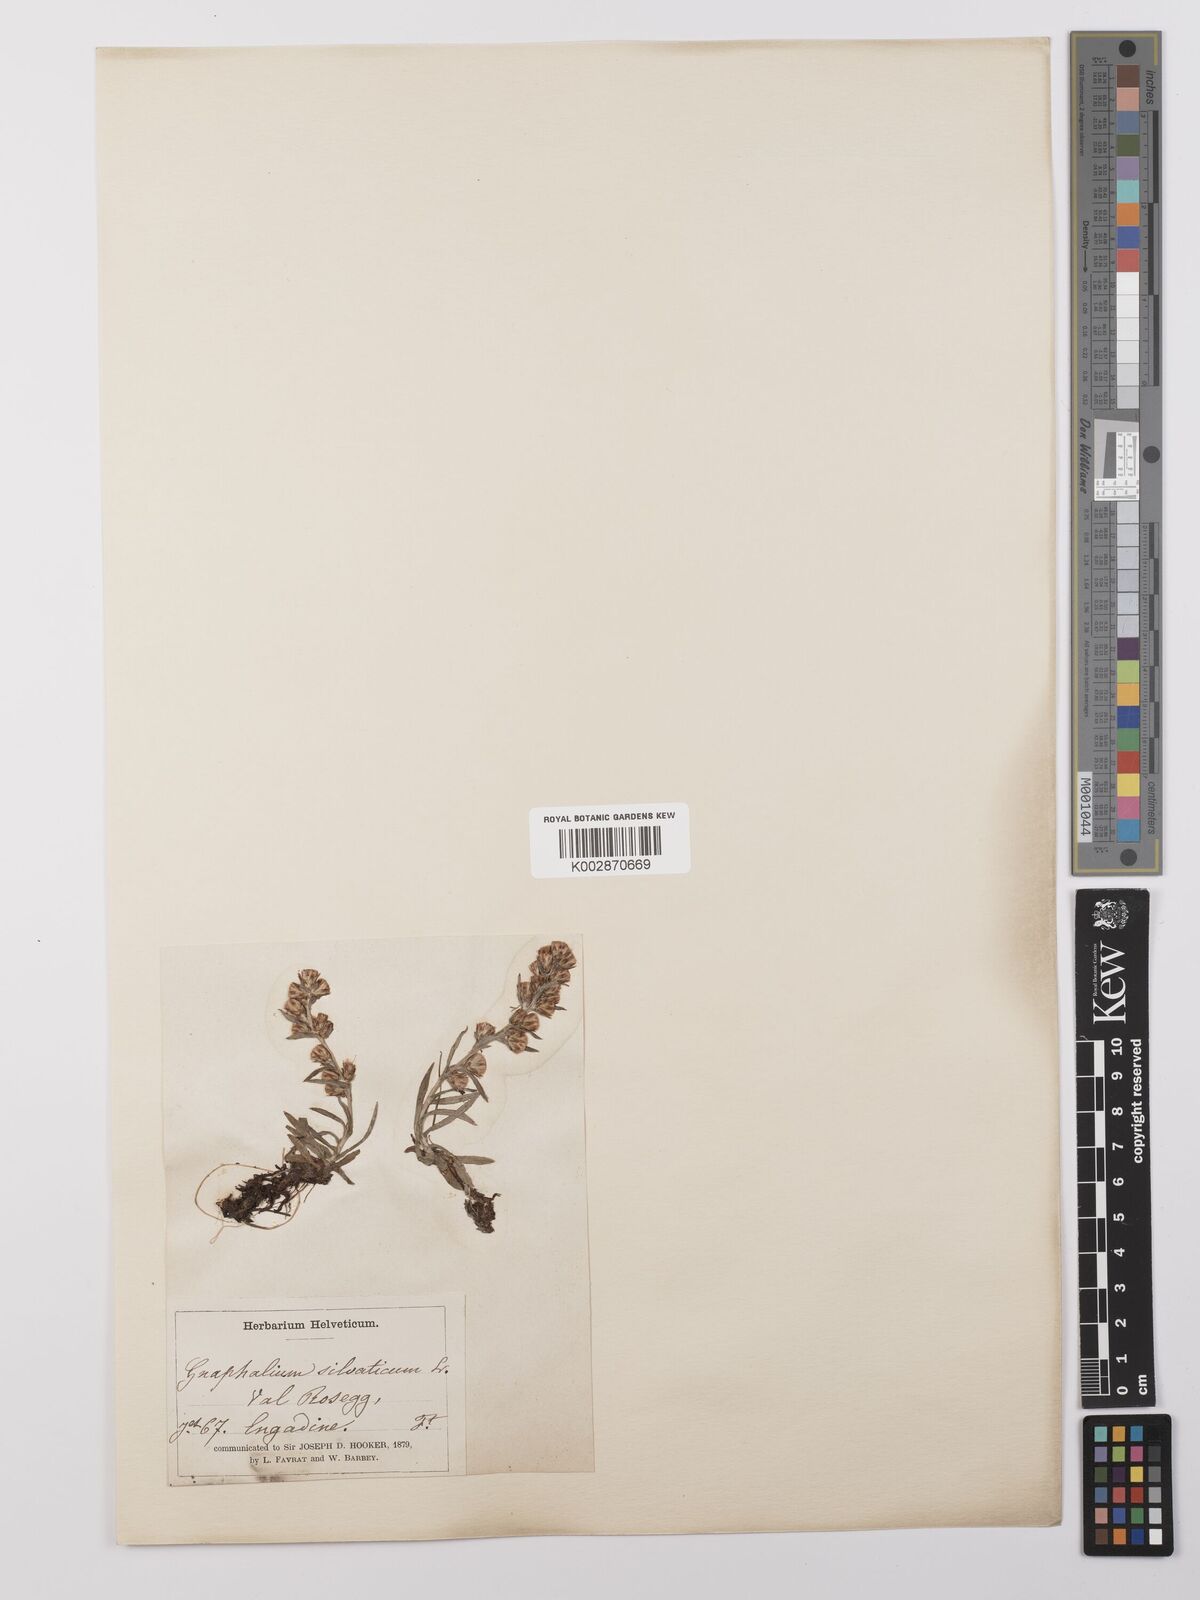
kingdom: Plantae
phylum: Tracheophyta
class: Magnoliopsida
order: Asterales
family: Asteraceae
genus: Omalotheca
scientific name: Omalotheca sylvatica
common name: Heath cudweed
